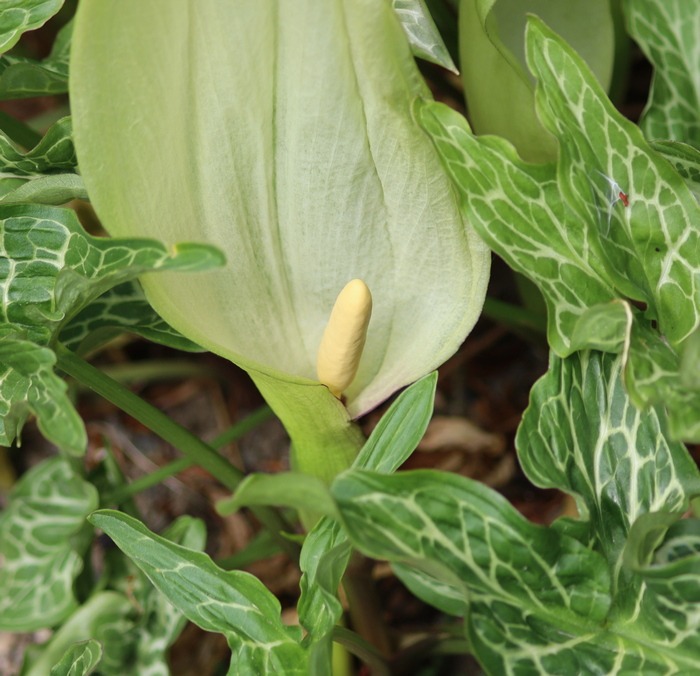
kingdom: Plantae
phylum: Tracheophyta
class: Liliopsida
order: Alismatales
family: Araceae
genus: Arum
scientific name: Arum italicum
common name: Italiensk arum
